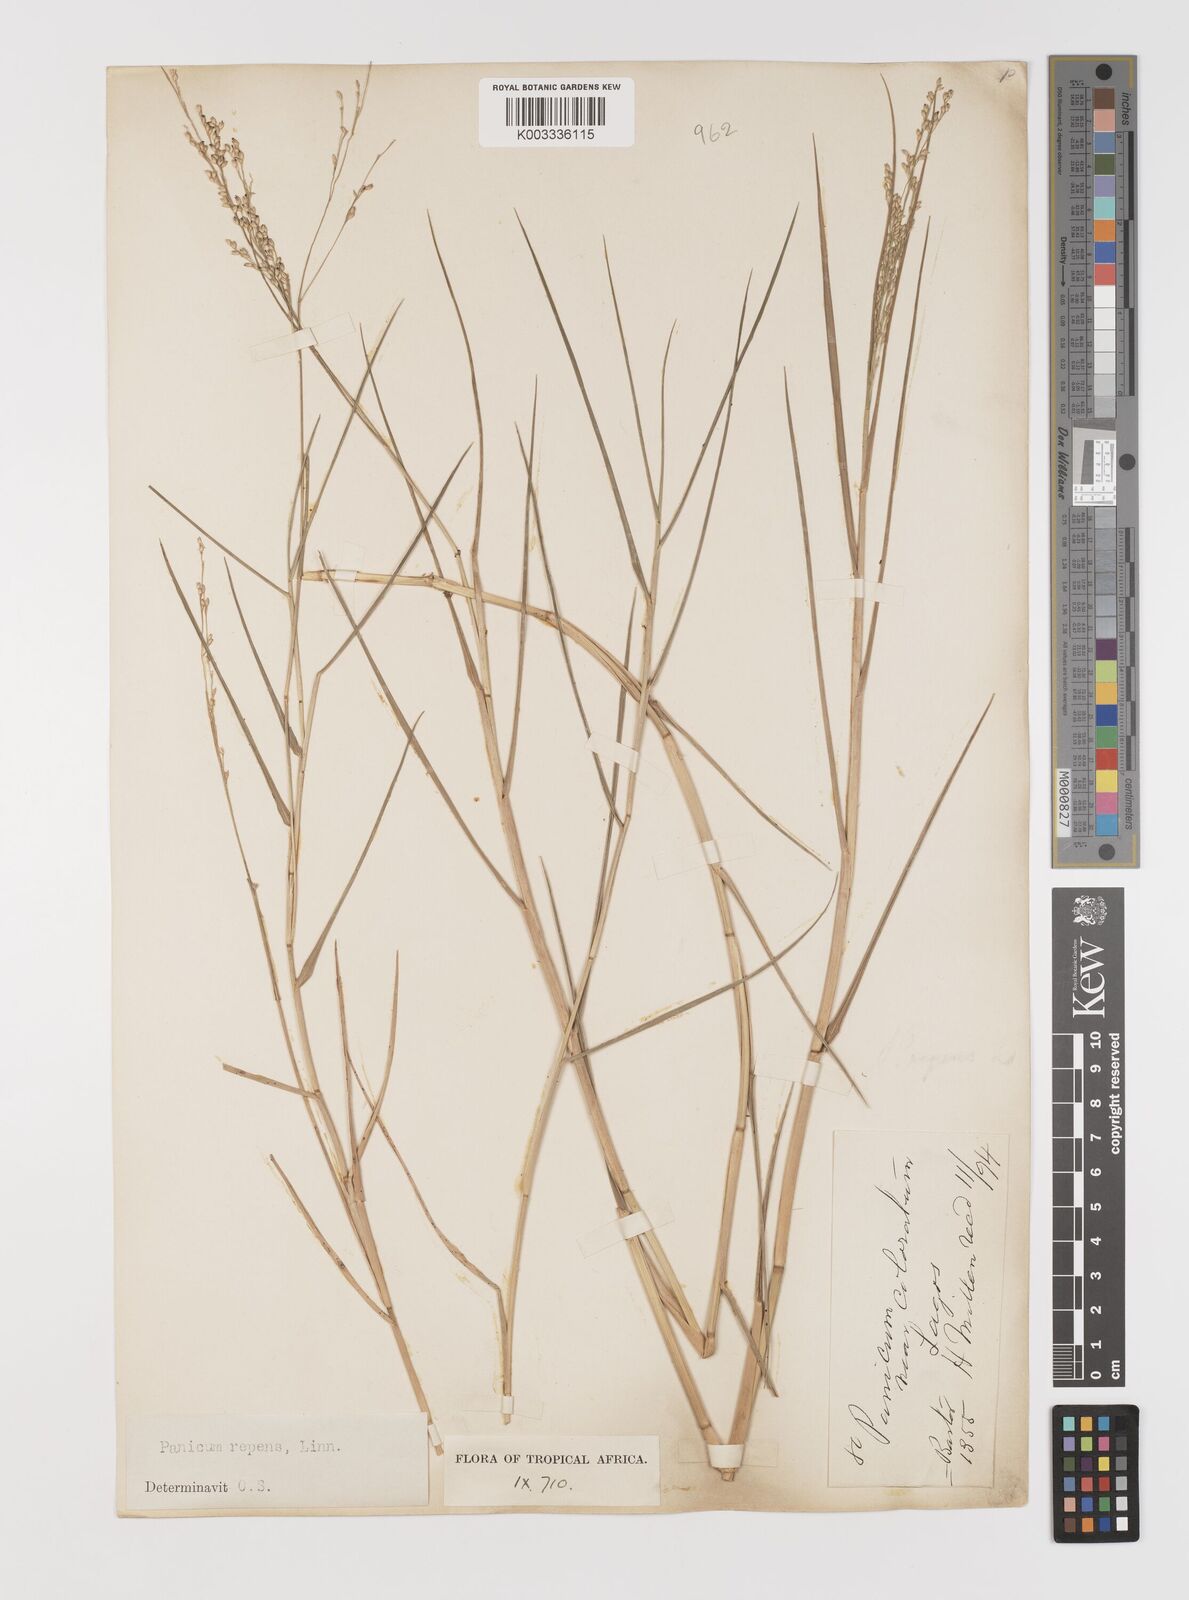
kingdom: Plantae
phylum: Tracheophyta
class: Liliopsida
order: Poales
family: Poaceae
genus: Panicum
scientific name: Panicum repens
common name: Torpedo grass
